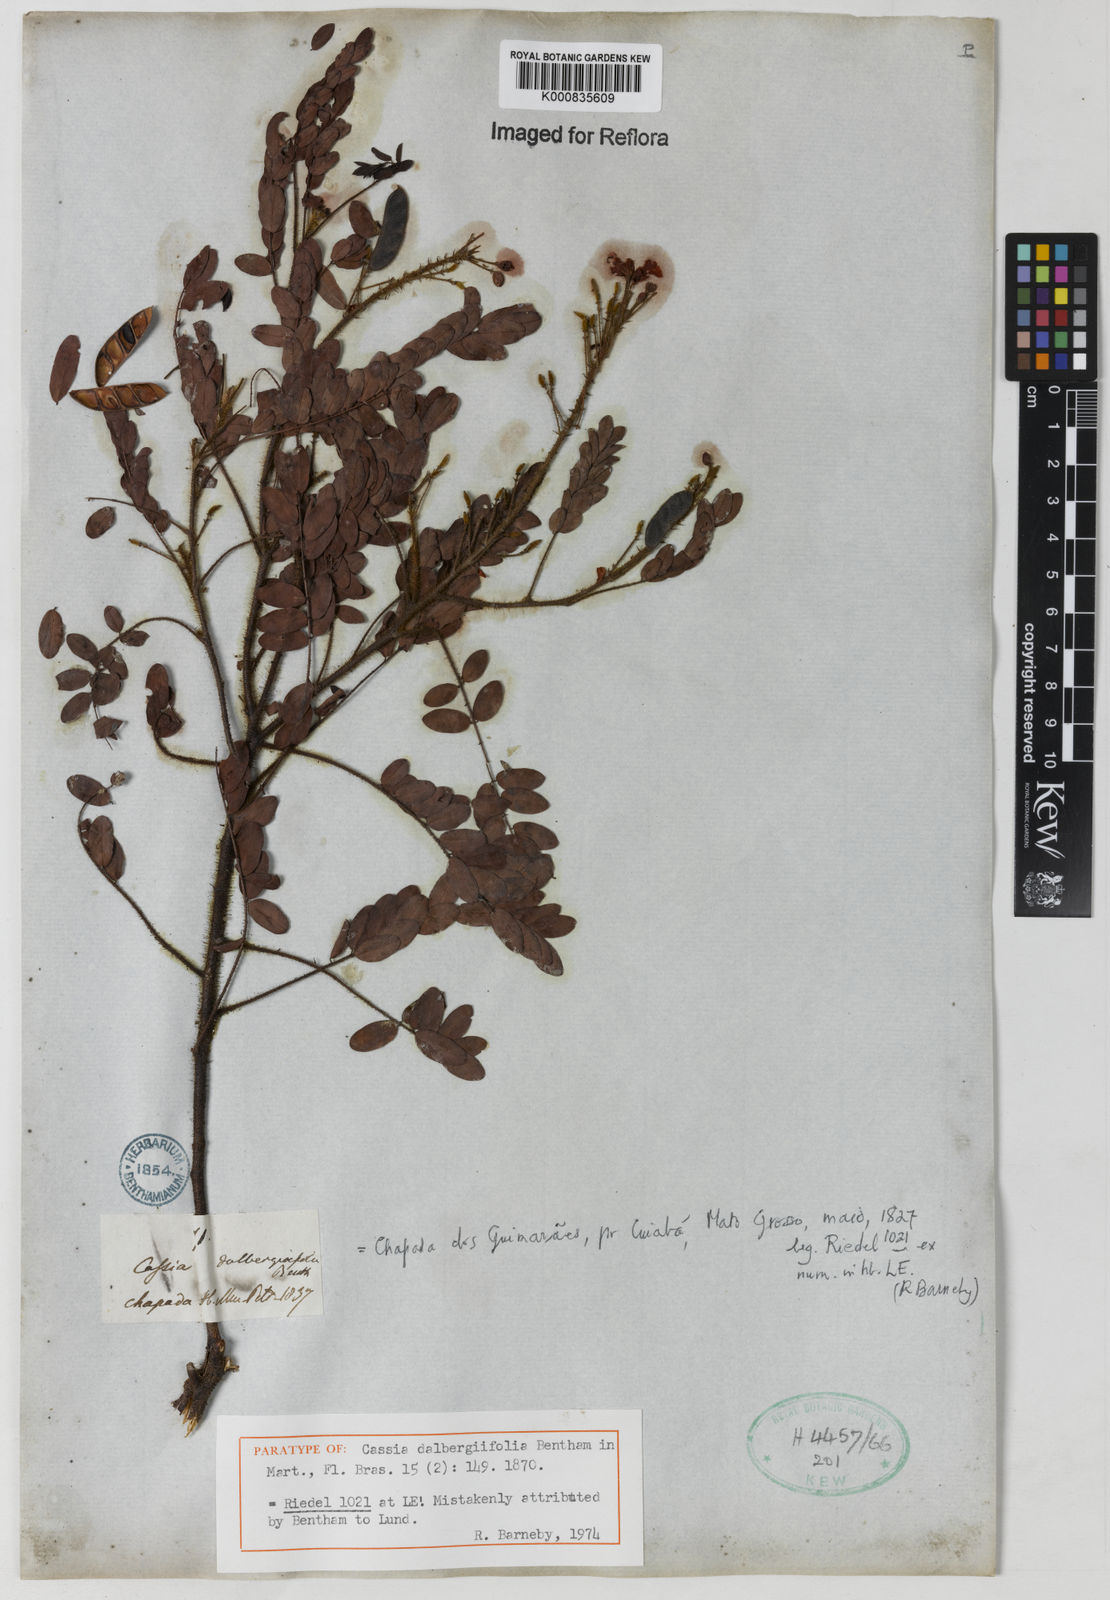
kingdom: Plantae
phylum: Tracheophyta
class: Magnoliopsida
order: Fabales
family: Fabaceae
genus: Chamaecrista
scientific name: Chamaecrista dalbergiifolia
